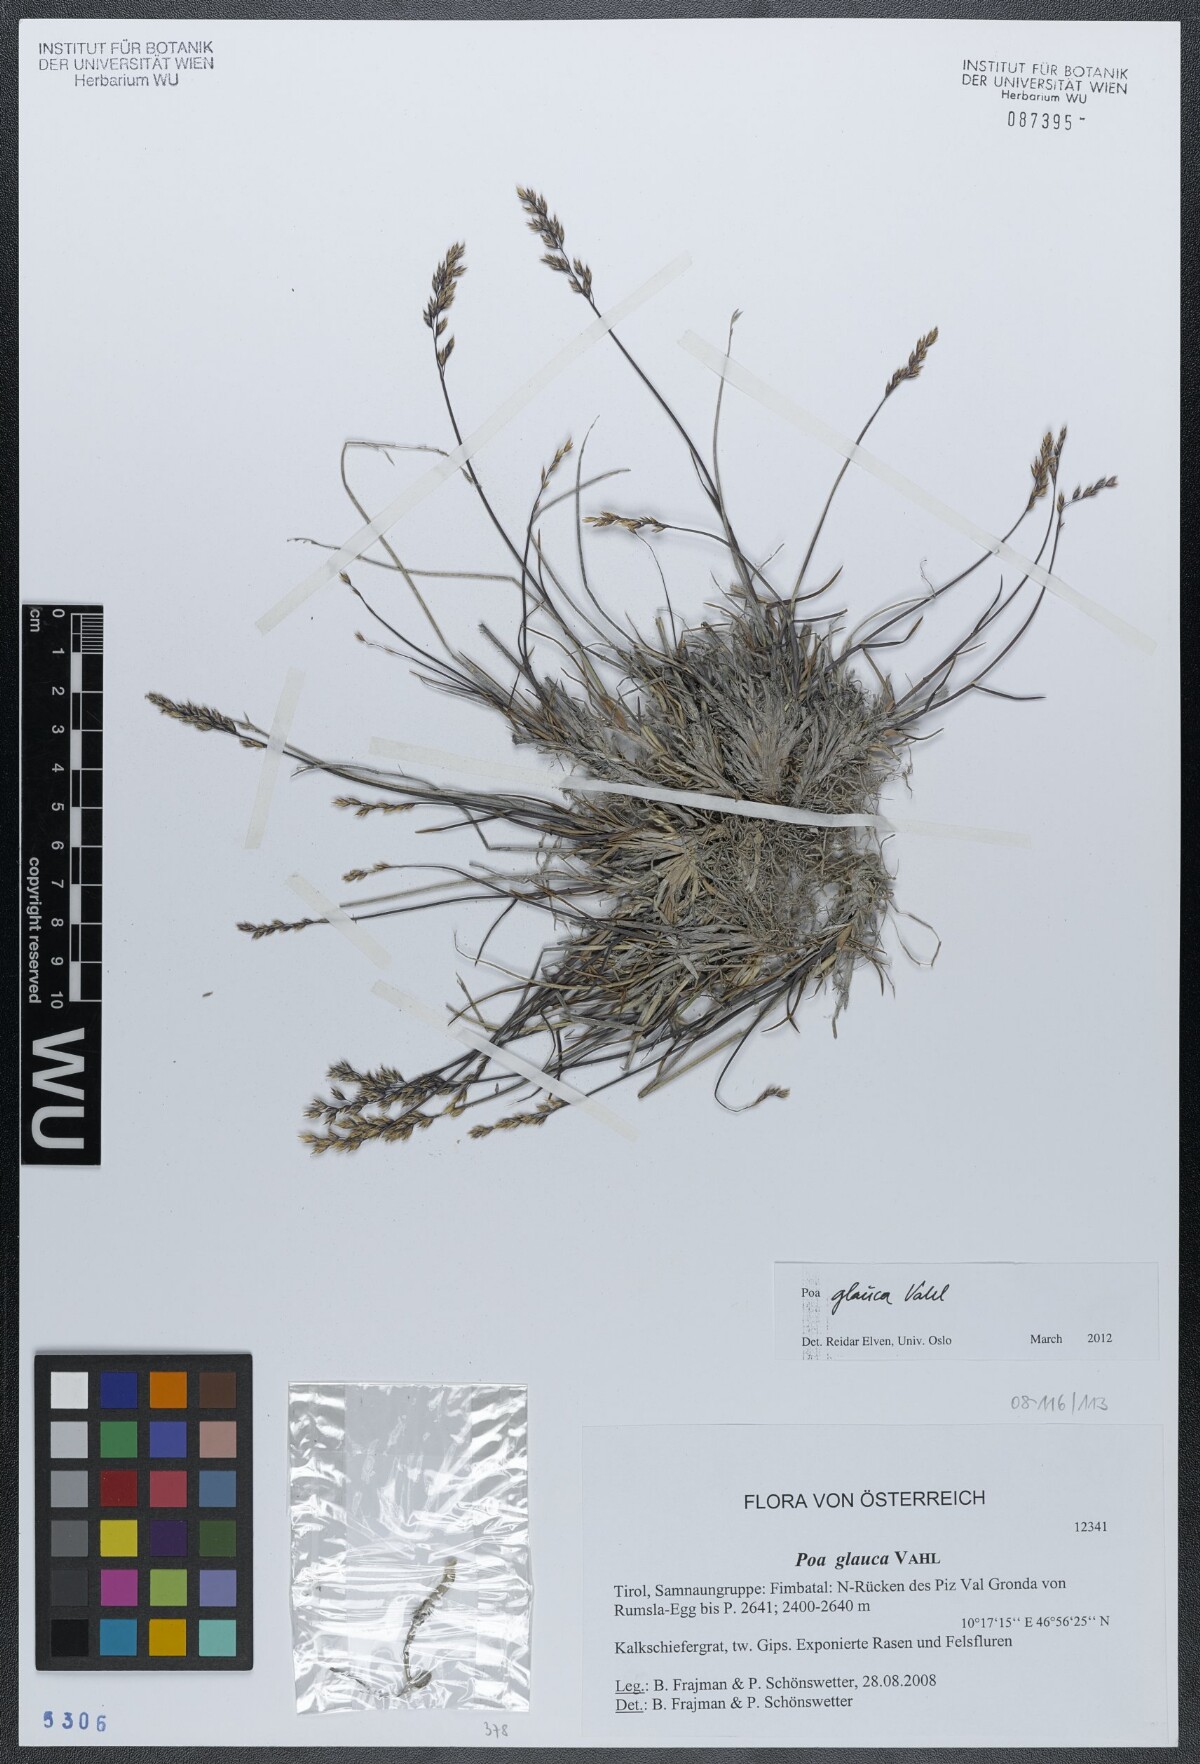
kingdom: Plantae
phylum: Tracheophyta
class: Liliopsida
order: Poales
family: Poaceae
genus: Poa
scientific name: Poa glauca
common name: Glaucous bluegrass
